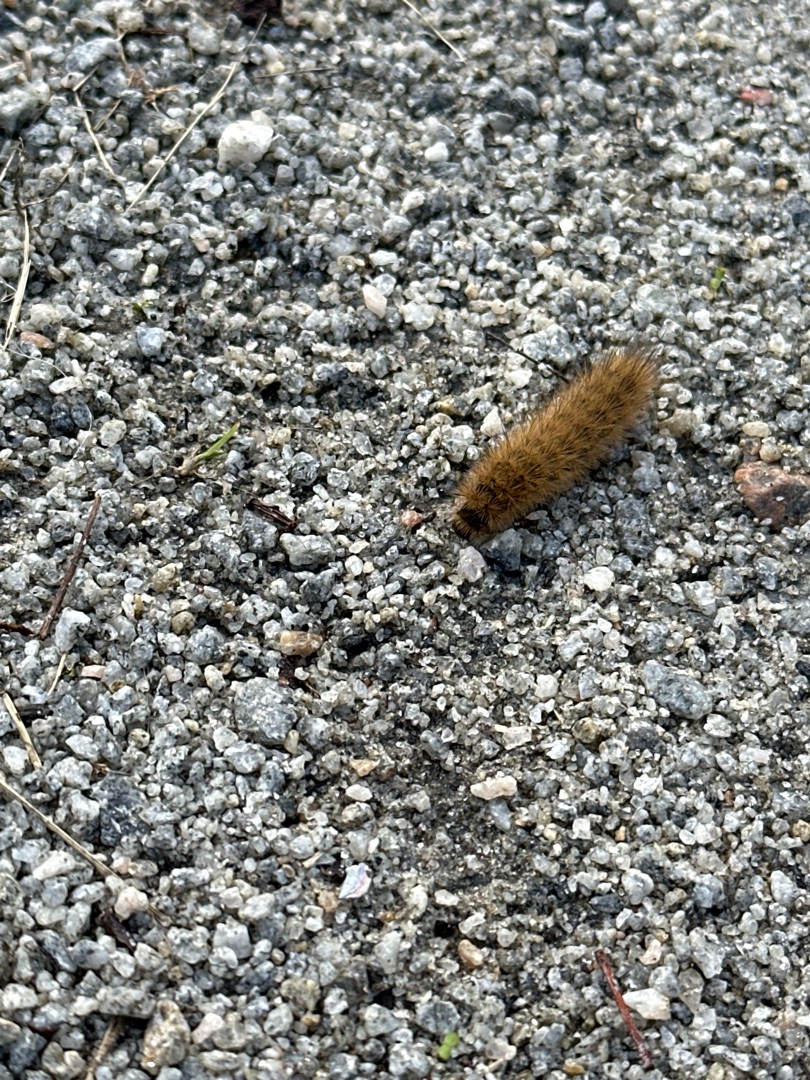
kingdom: Animalia
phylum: Arthropoda
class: Insecta
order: Lepidoptera
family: Erebidae
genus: Phragmatobia
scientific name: Phragmatobia fuliginosa
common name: Kanelbjørn
